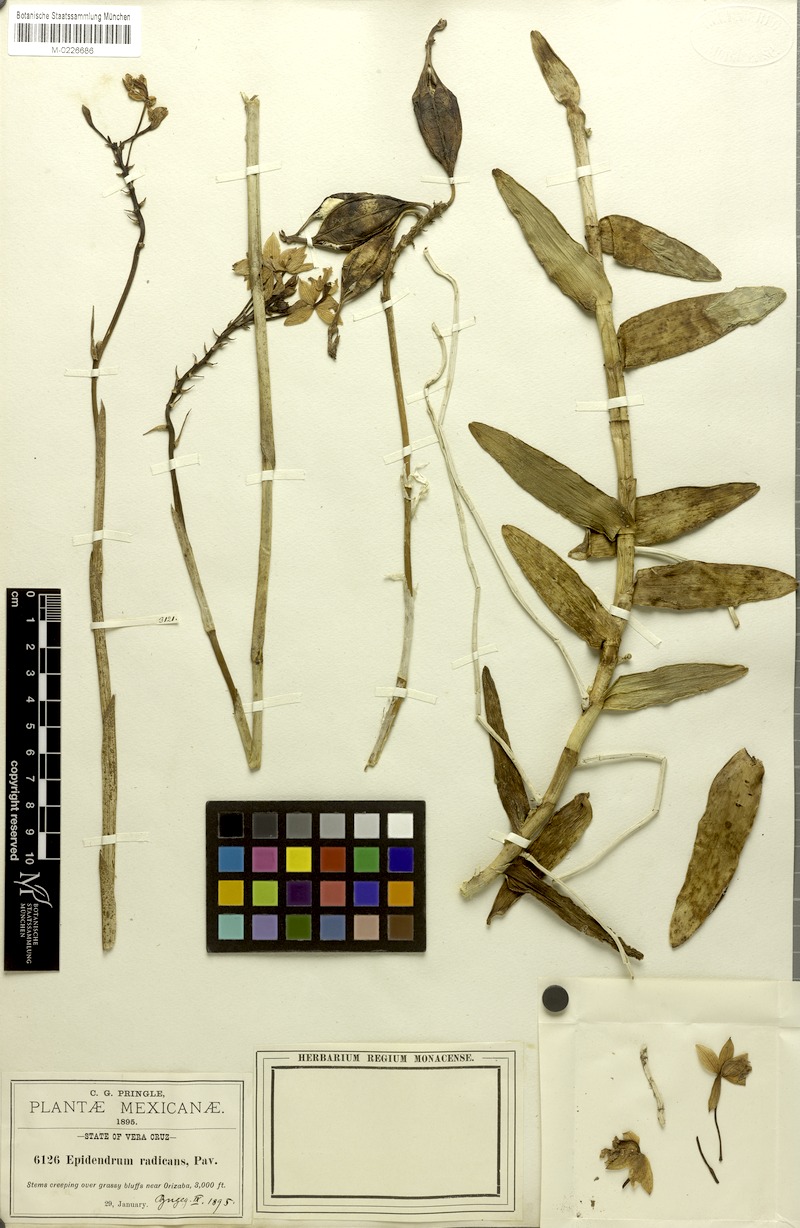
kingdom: Plantae
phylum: Tracheophyta
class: Liliopsida
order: Asparagales
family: Orchidaceae
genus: Epidendrum
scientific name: Epidendrum radicans
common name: Fire star orchid
